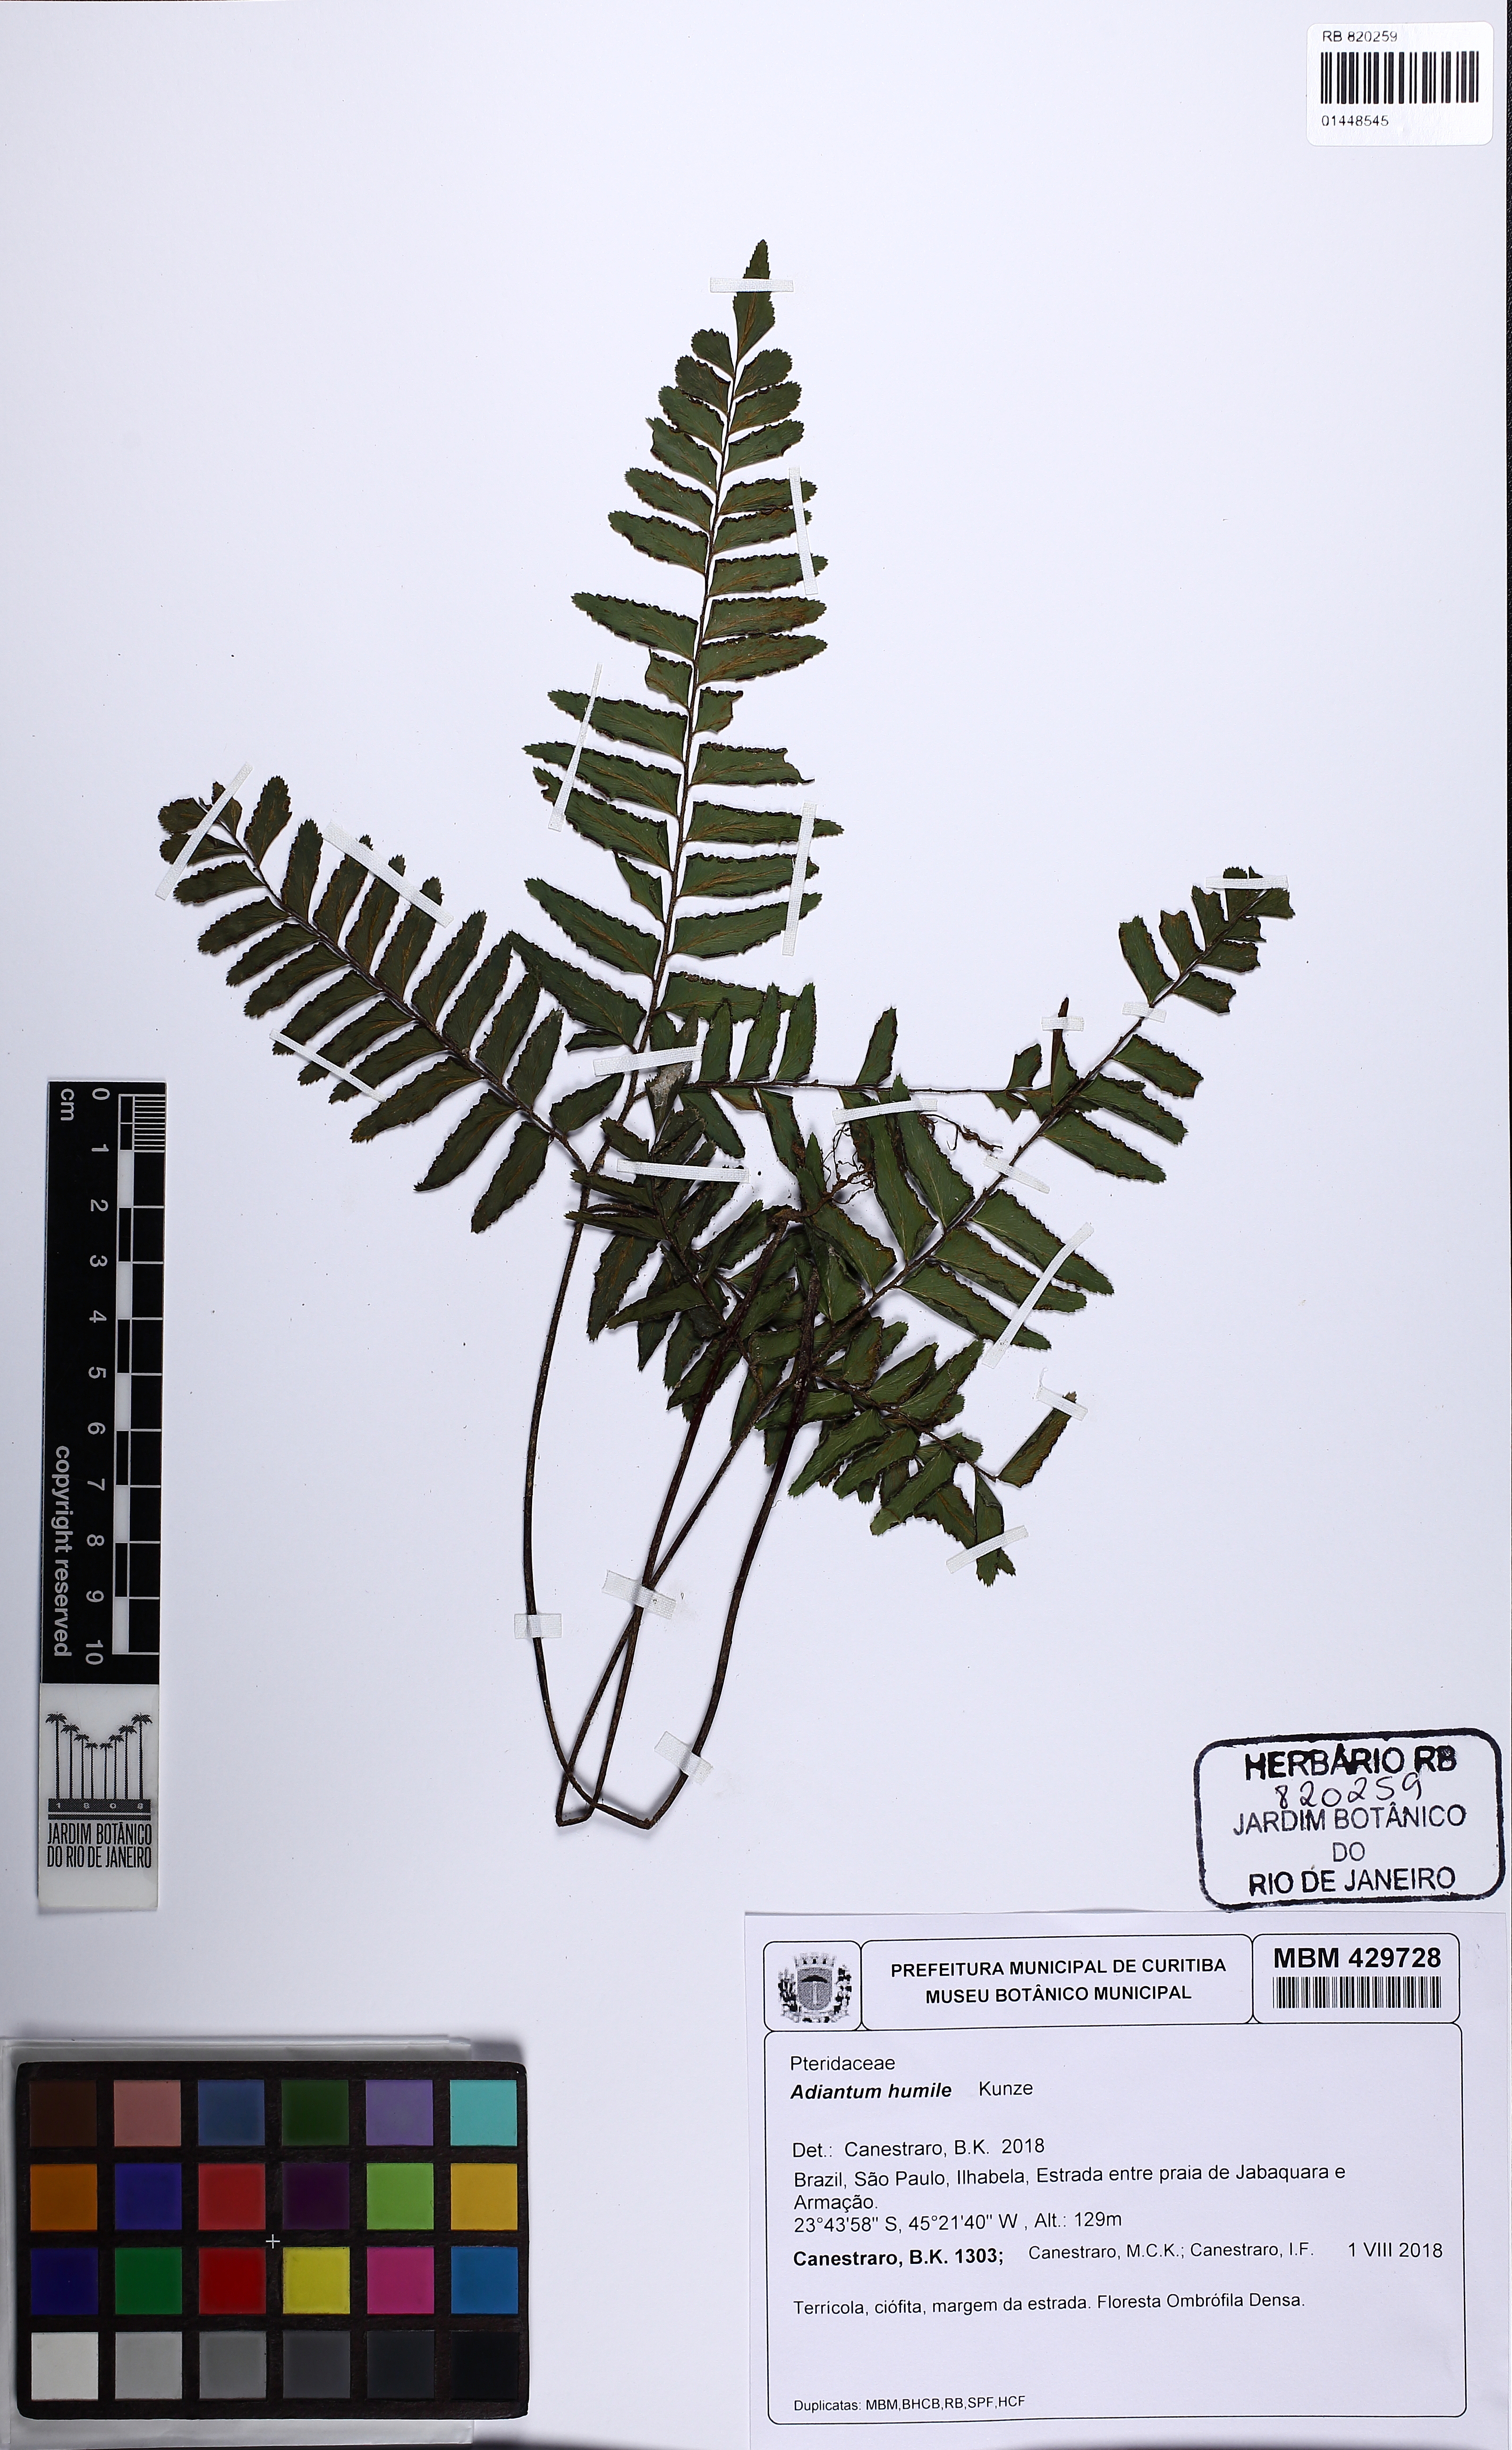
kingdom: Plantae
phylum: Tracheophyta
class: Polypodiopsida
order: Polypodiales
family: Pteridaceae
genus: Adiantum
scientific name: Adiantum humile
